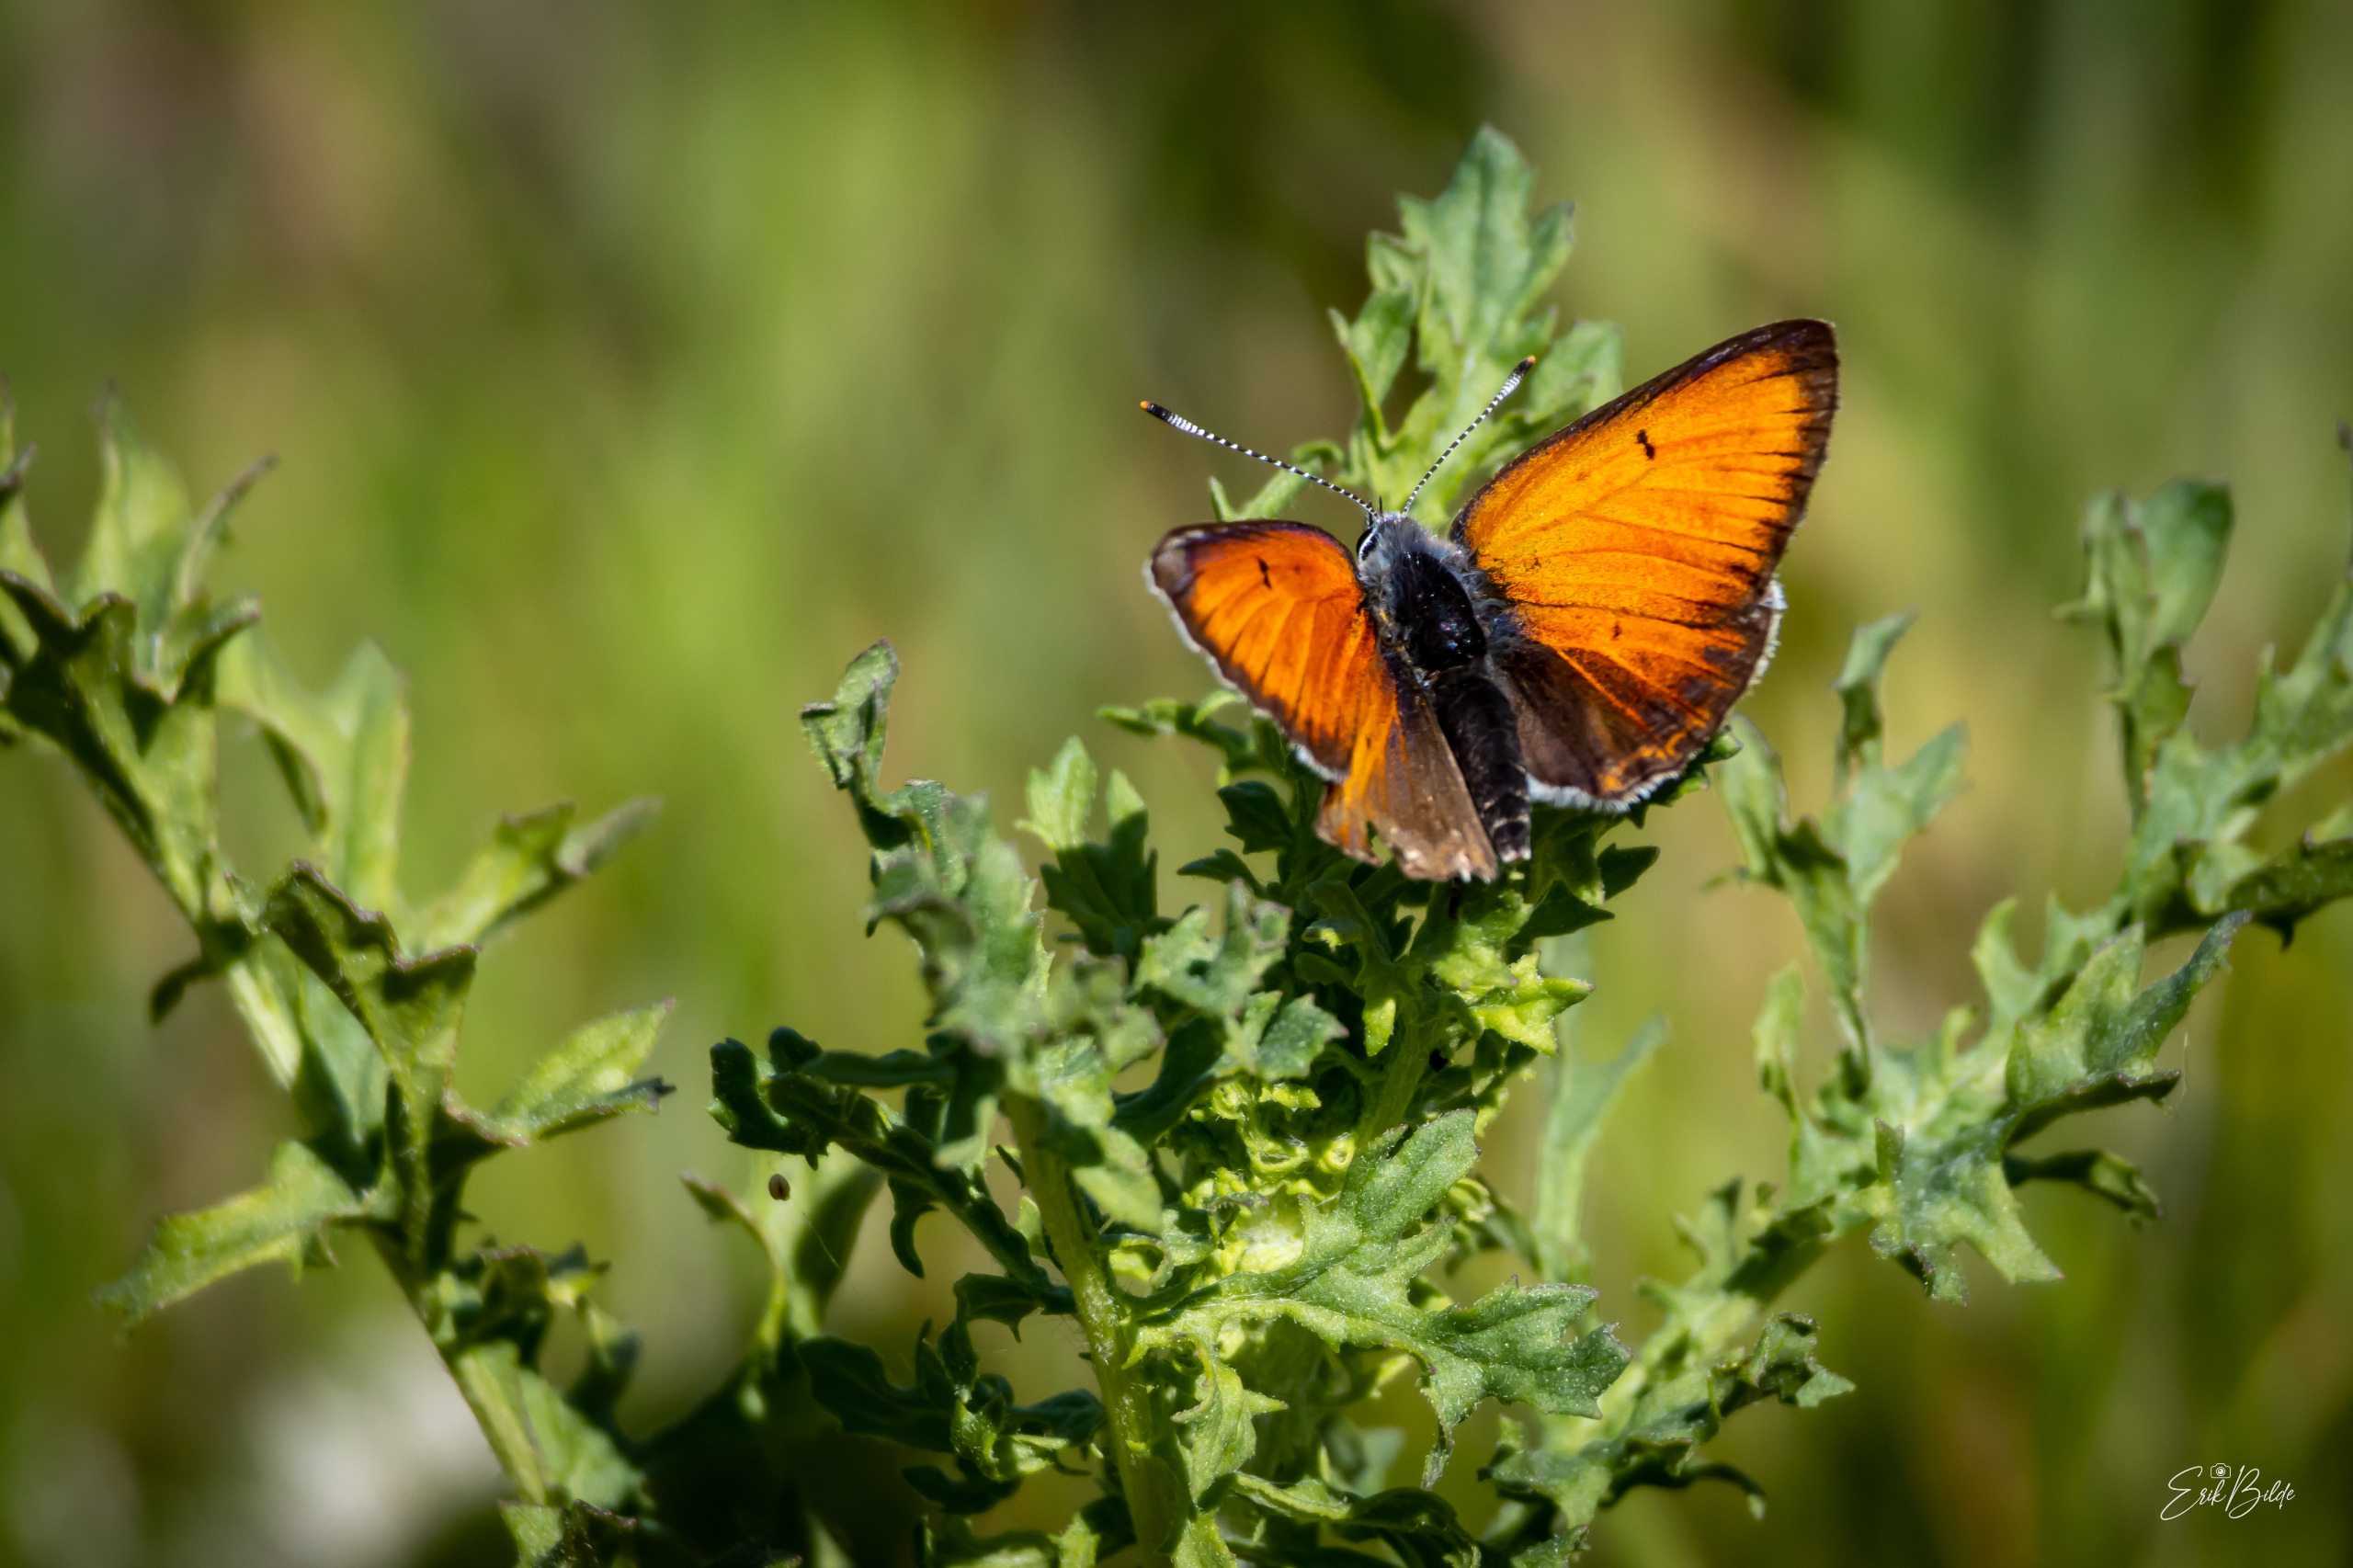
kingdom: Animalia
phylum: Arthropoda
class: Insecta
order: Lepidoptera
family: Lycaenidae
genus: Palaeochrysophanus
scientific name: Palaeochrysophanus hippothoe
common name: Violetrandet ildfugl
